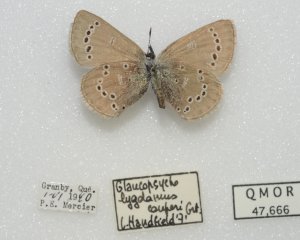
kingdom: Animalia
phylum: Arthropoda
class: Insecta
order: Lepidoptera
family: Lycaenidae
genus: Glaucopsyche
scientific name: Glaucopsyche lygdamus
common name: Silvery Blue
